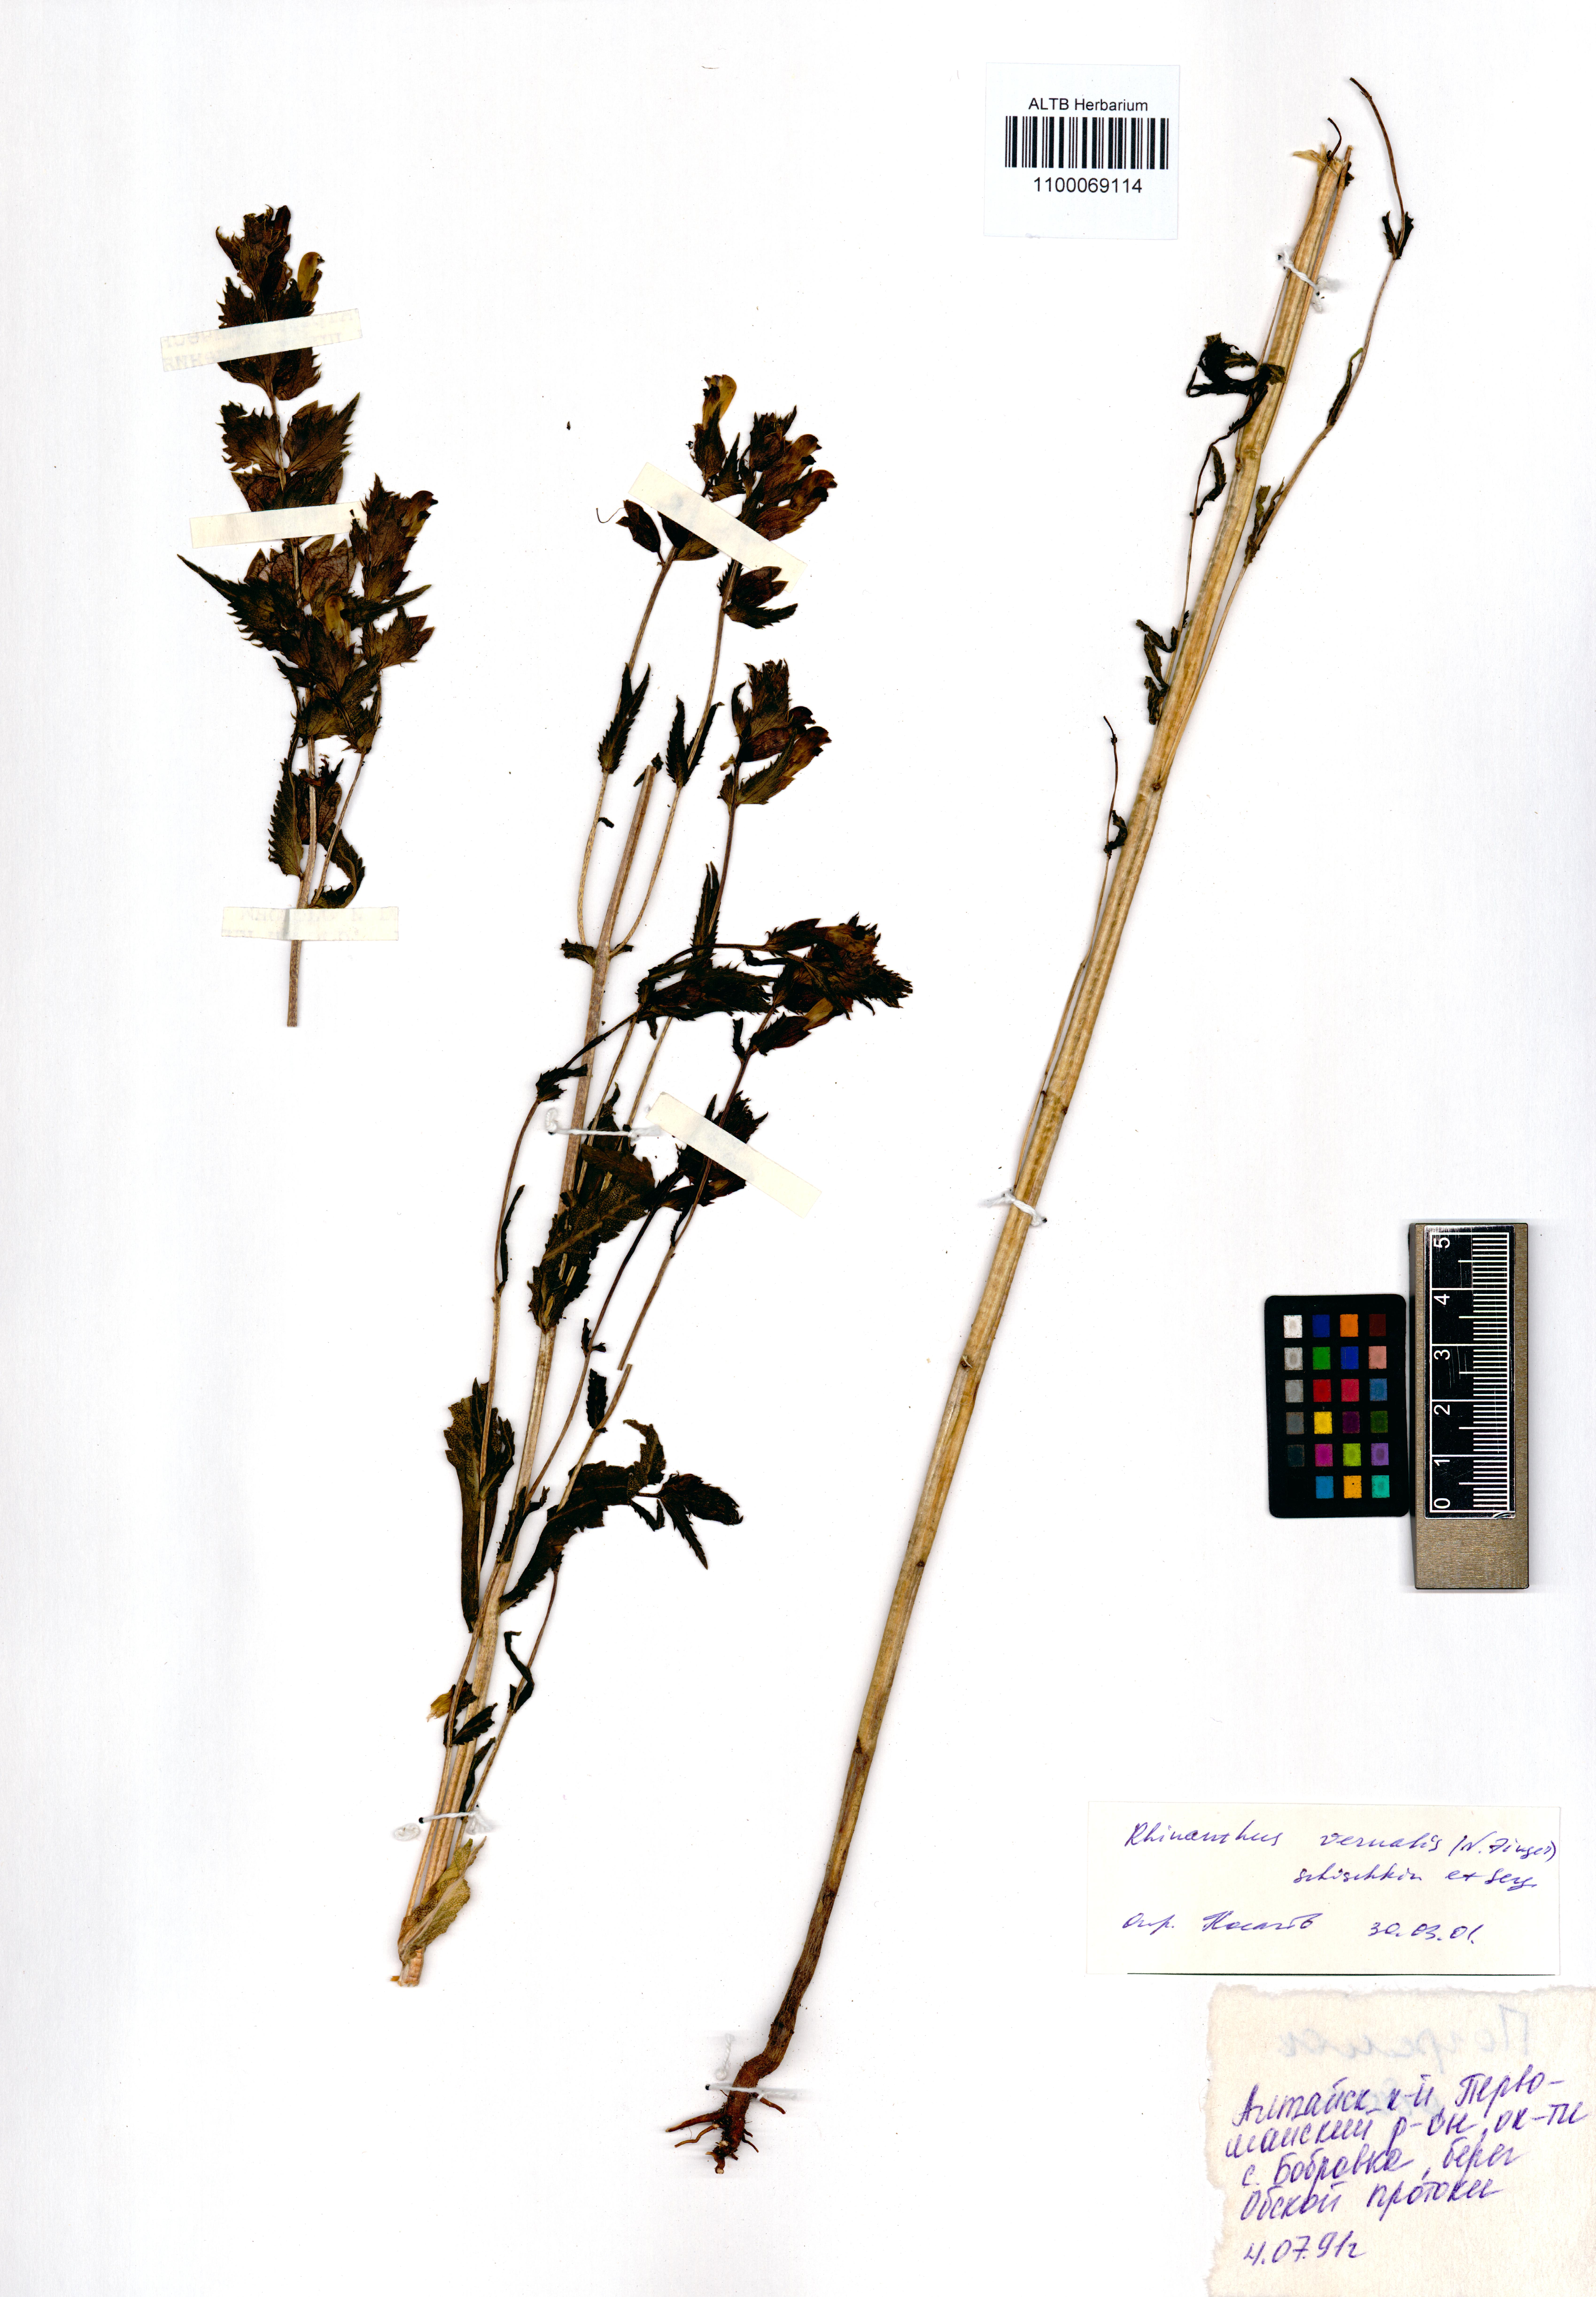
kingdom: Plantae
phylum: Tracheophyta
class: Magnoliopsida
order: Lamiales
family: Orobanchaceae
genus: Rhinanthus
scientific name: Rhinanthus serotinus
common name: Late-flowering yellow rattle
